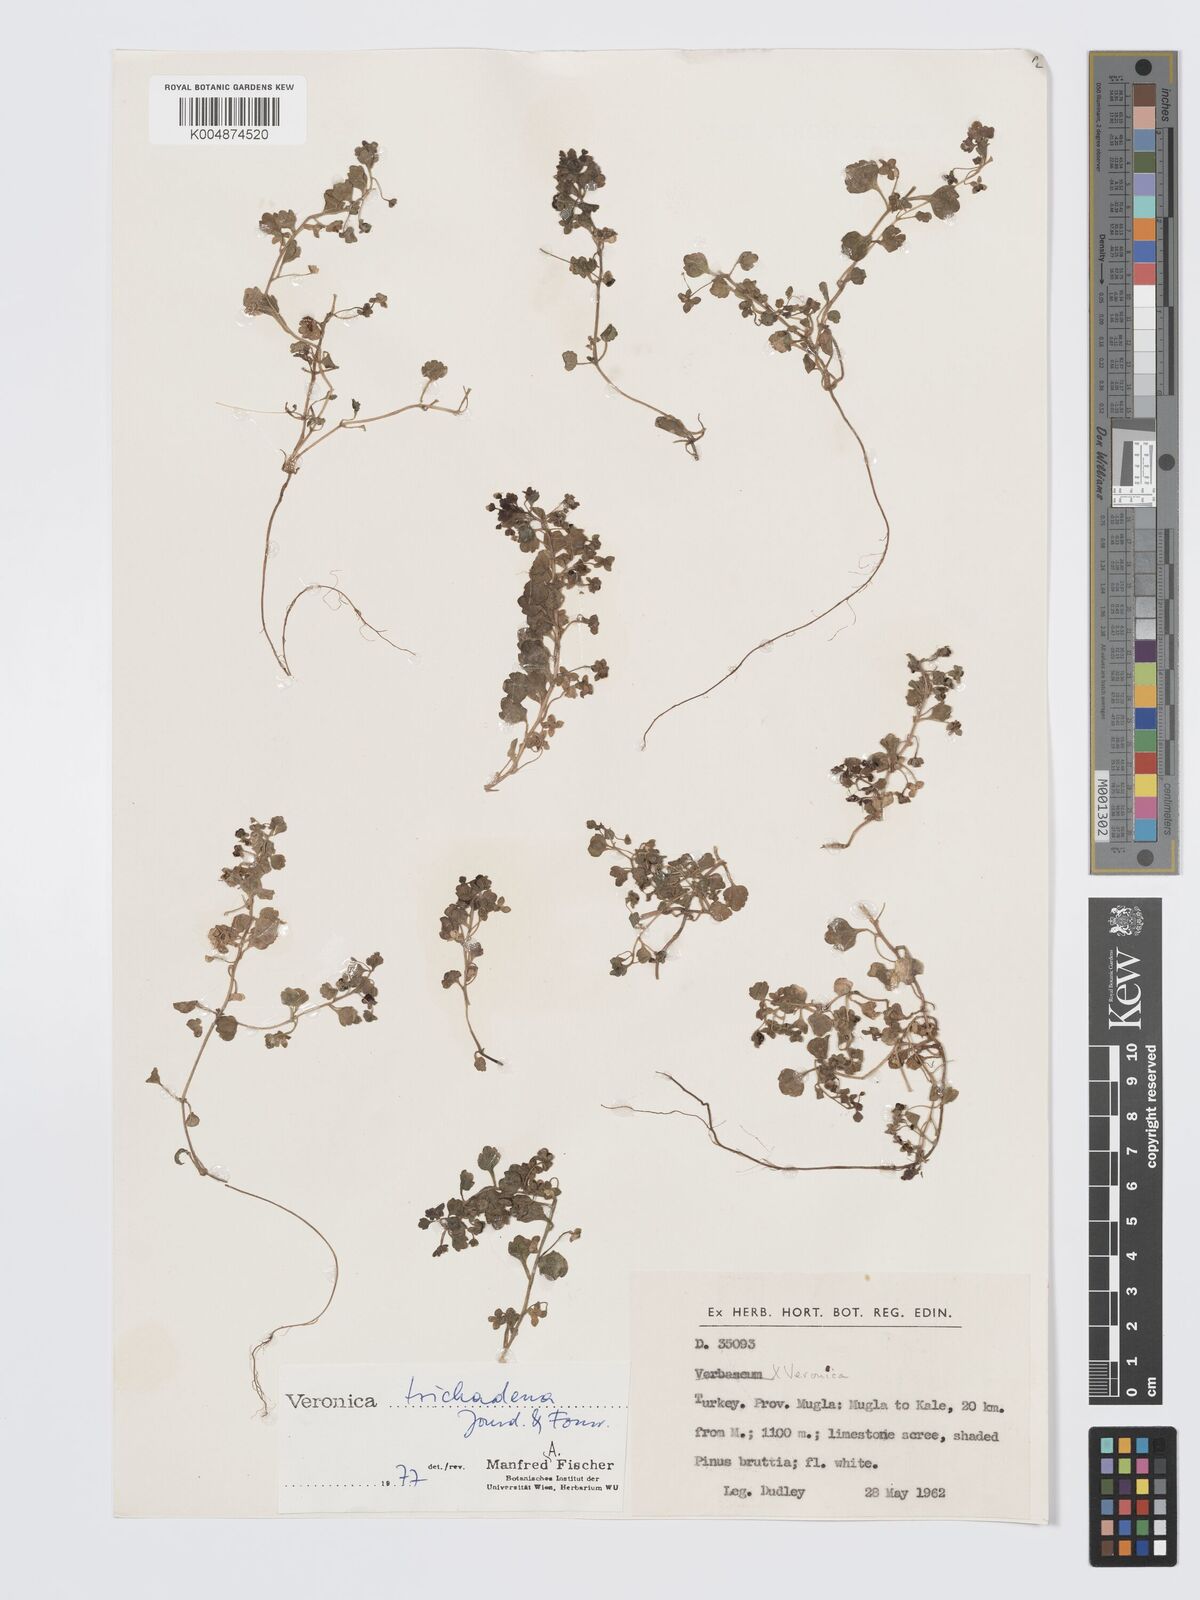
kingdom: Plantae
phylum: Tracheophyta
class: Magnoliopsida
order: Lamiales
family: Plantaginaceae
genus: Veronica
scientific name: Veronica trichadena
